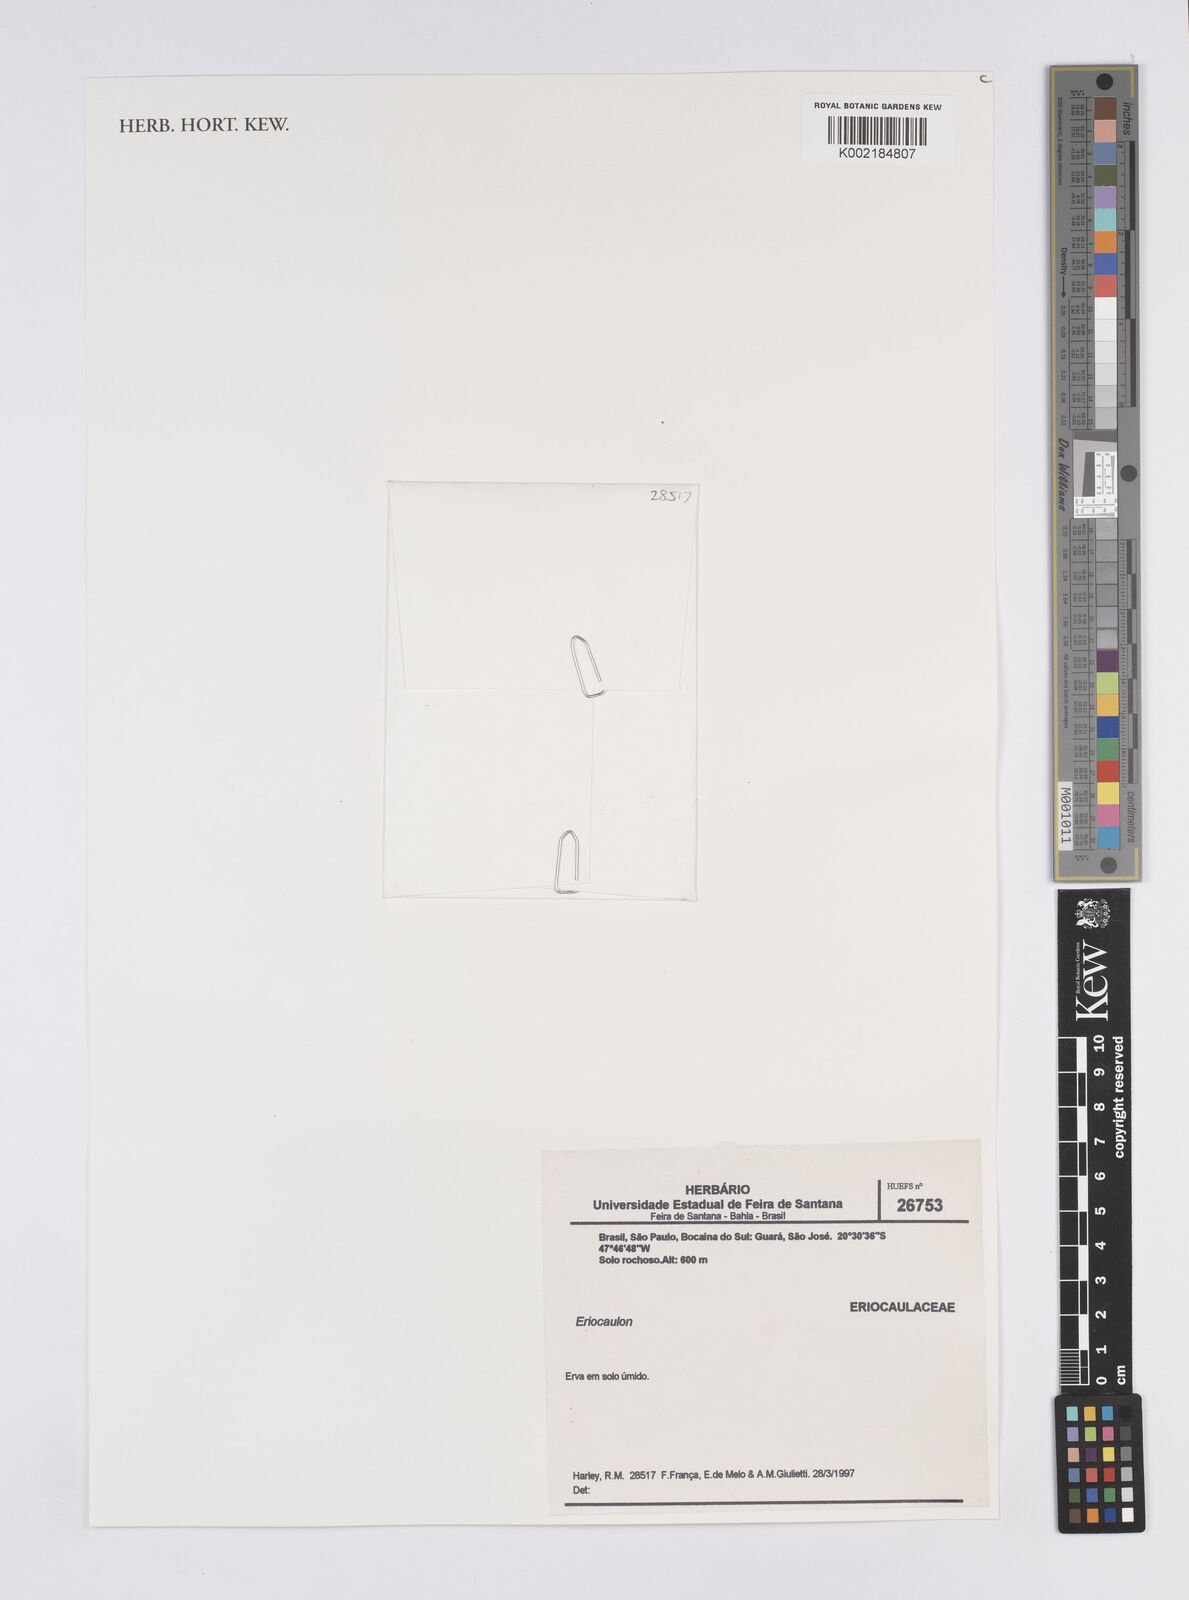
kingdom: Plantae
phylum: Tracheophyta
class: Liliopsida
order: Poales
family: Eriocaulaceae
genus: Eriocaulon
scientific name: Eriocaulon
